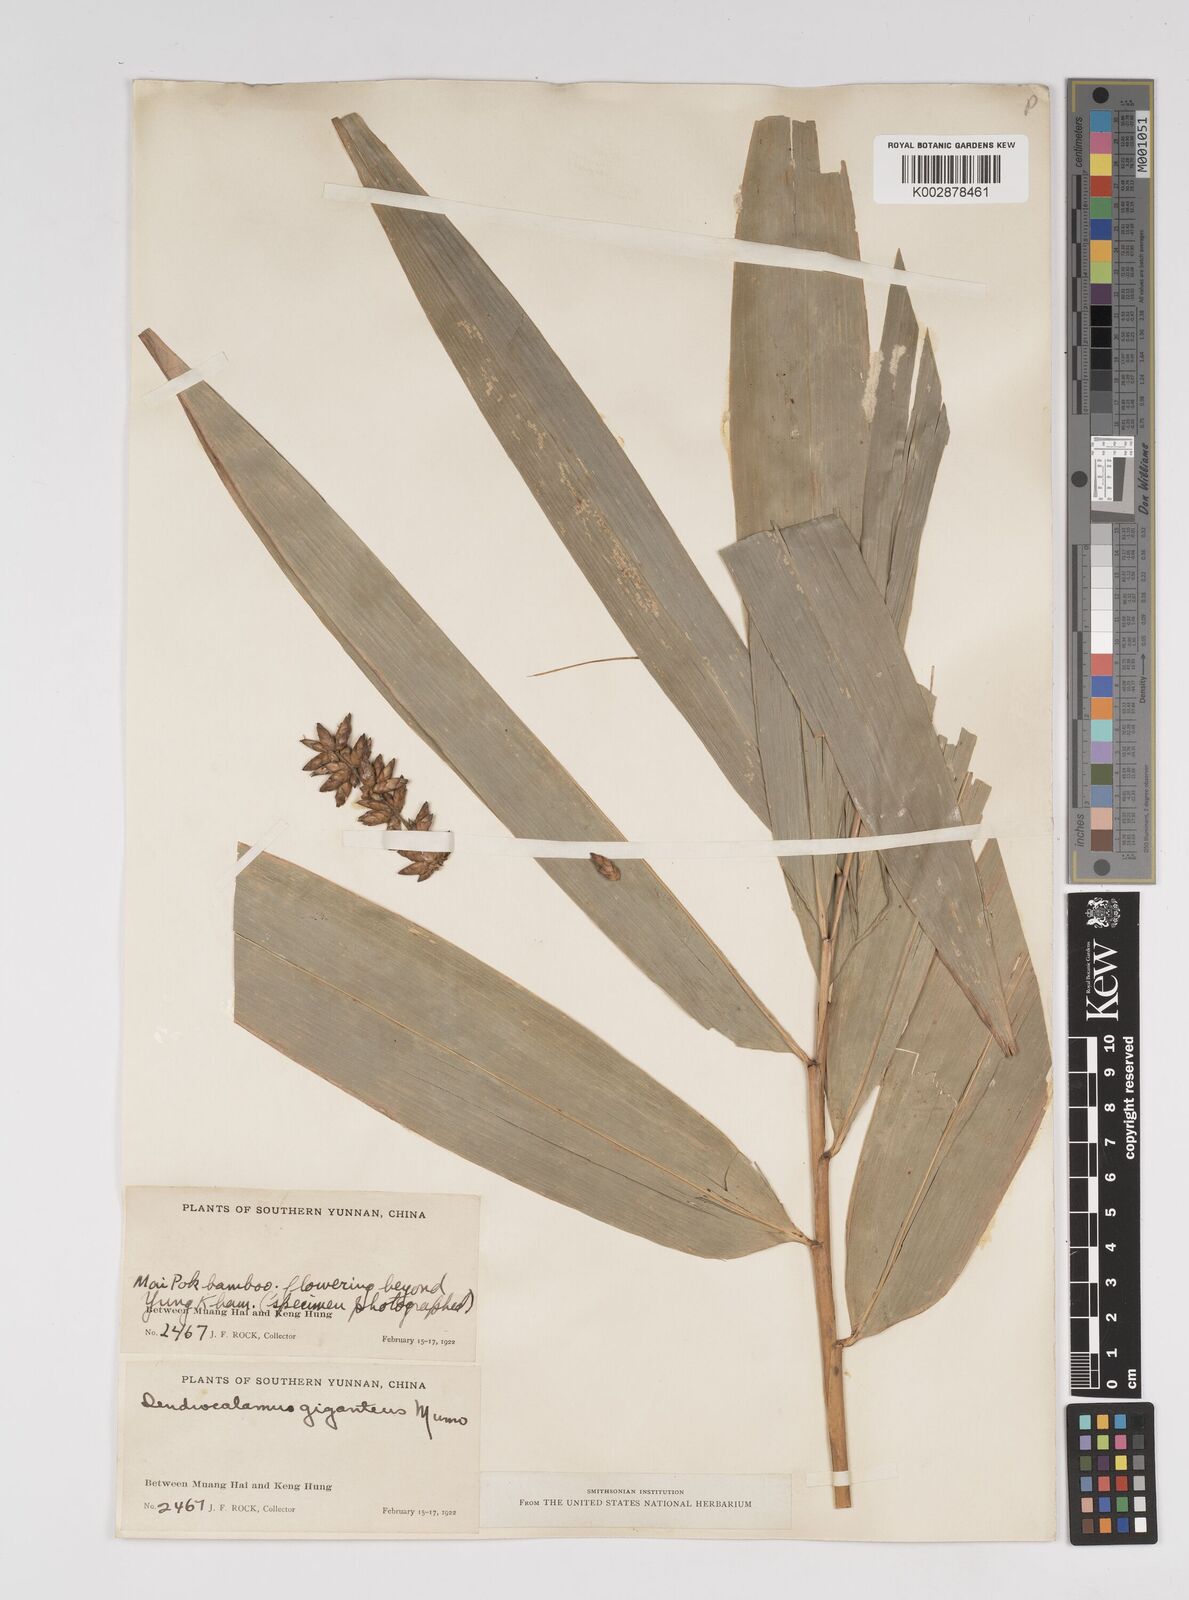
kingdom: Plantae
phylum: Tracheophyta
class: Liliopsida
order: Poales
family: Poaceae
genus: Dendrocalamus
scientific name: Dendrocalamus giganteus
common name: Giant bamboo
